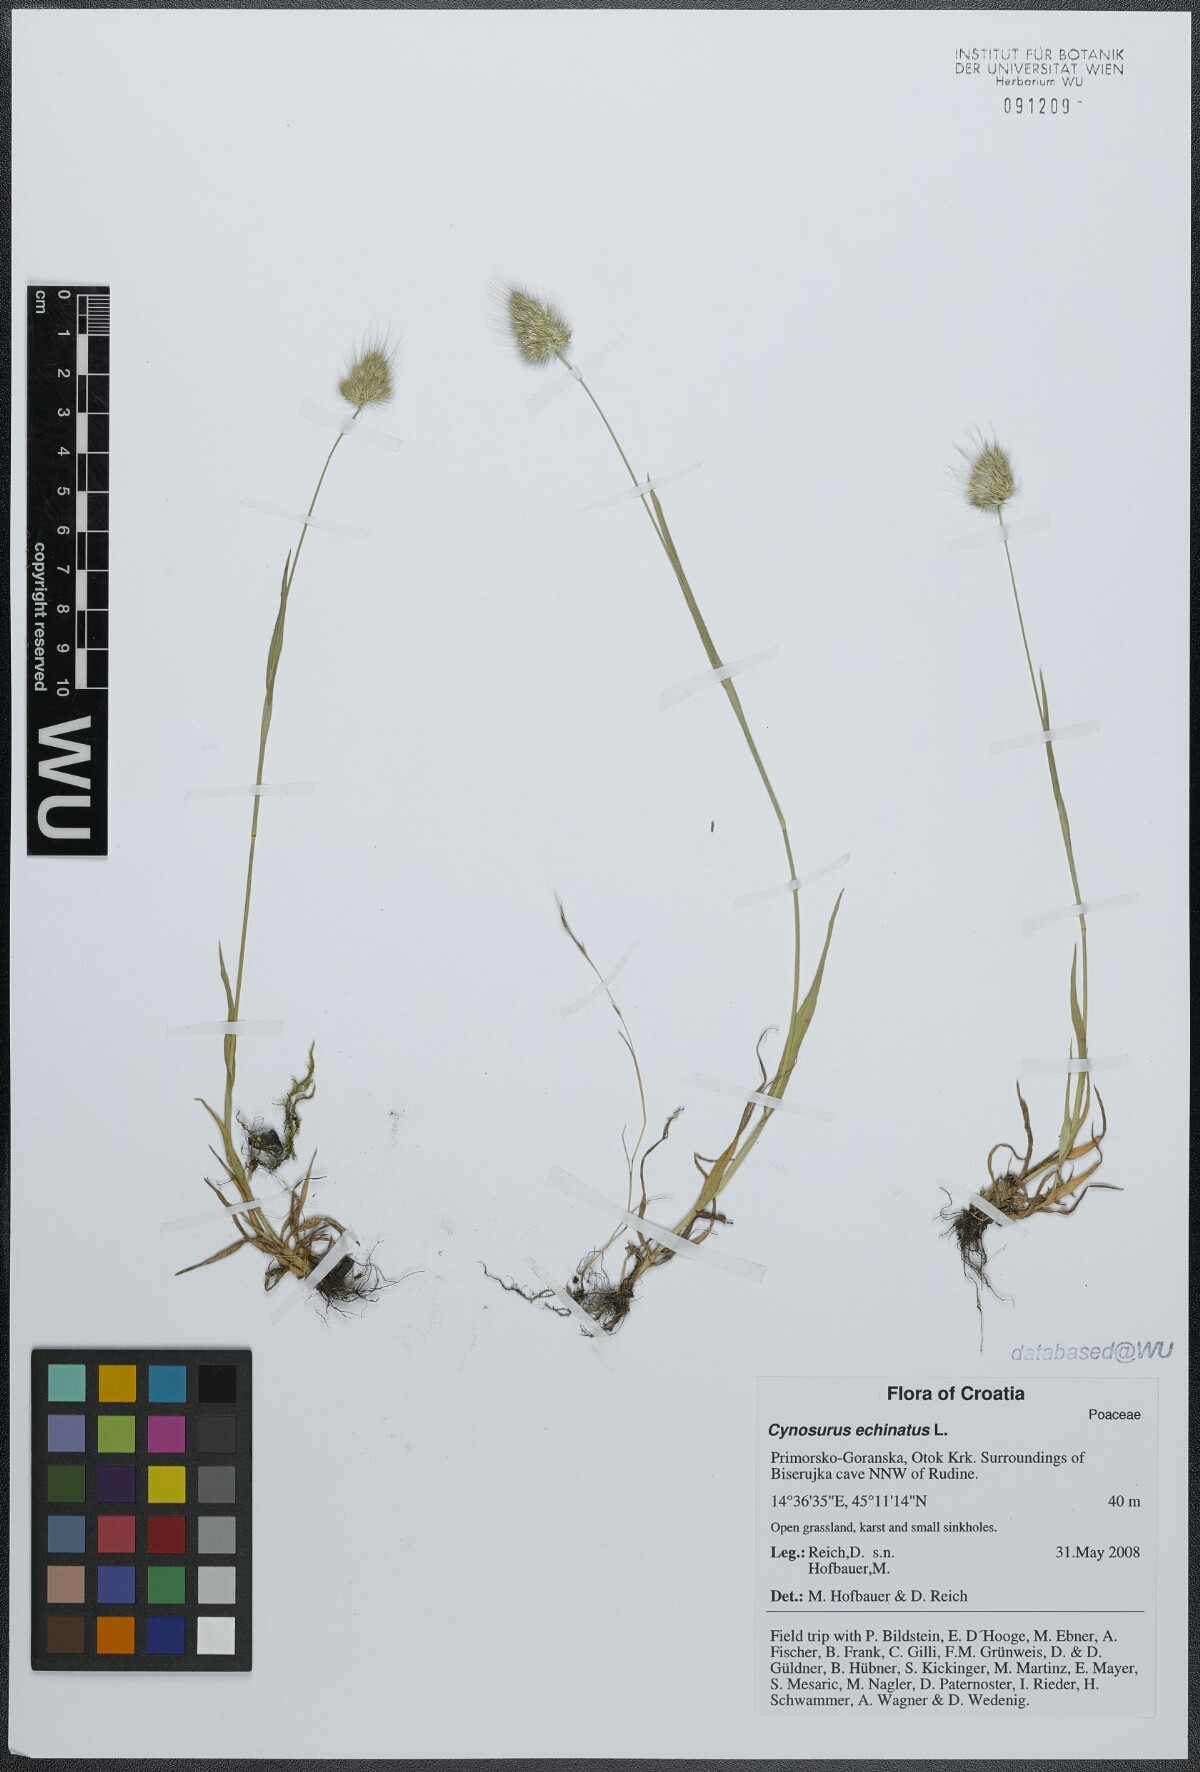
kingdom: Plantae
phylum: Tracheophyta
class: Liliopsida
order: Poales
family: Poaceae
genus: Cynosurus
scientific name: Cynosurus echinatus
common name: Rough dog's-tail
